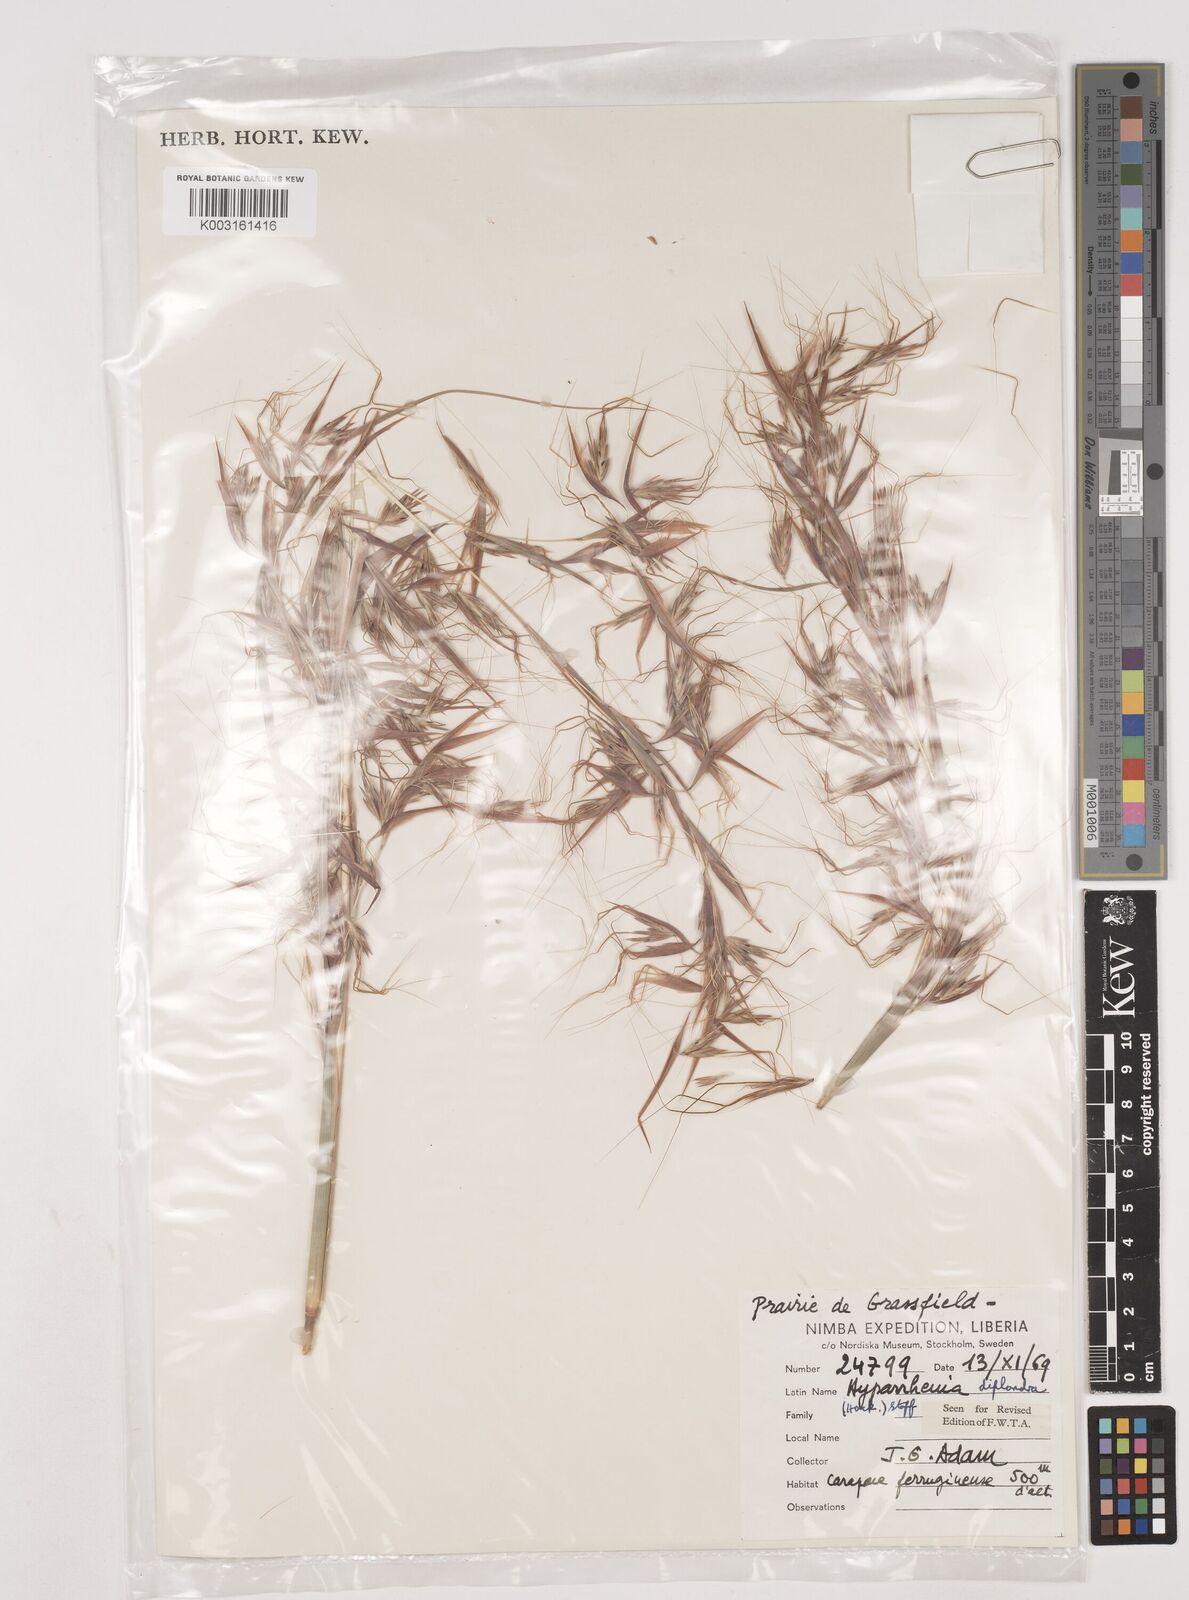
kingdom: Plantae
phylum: Tracheophyta
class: Liliopsida
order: Poales
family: Poaceae
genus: Hyparrhenia
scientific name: Hyparrhenia diplandra
